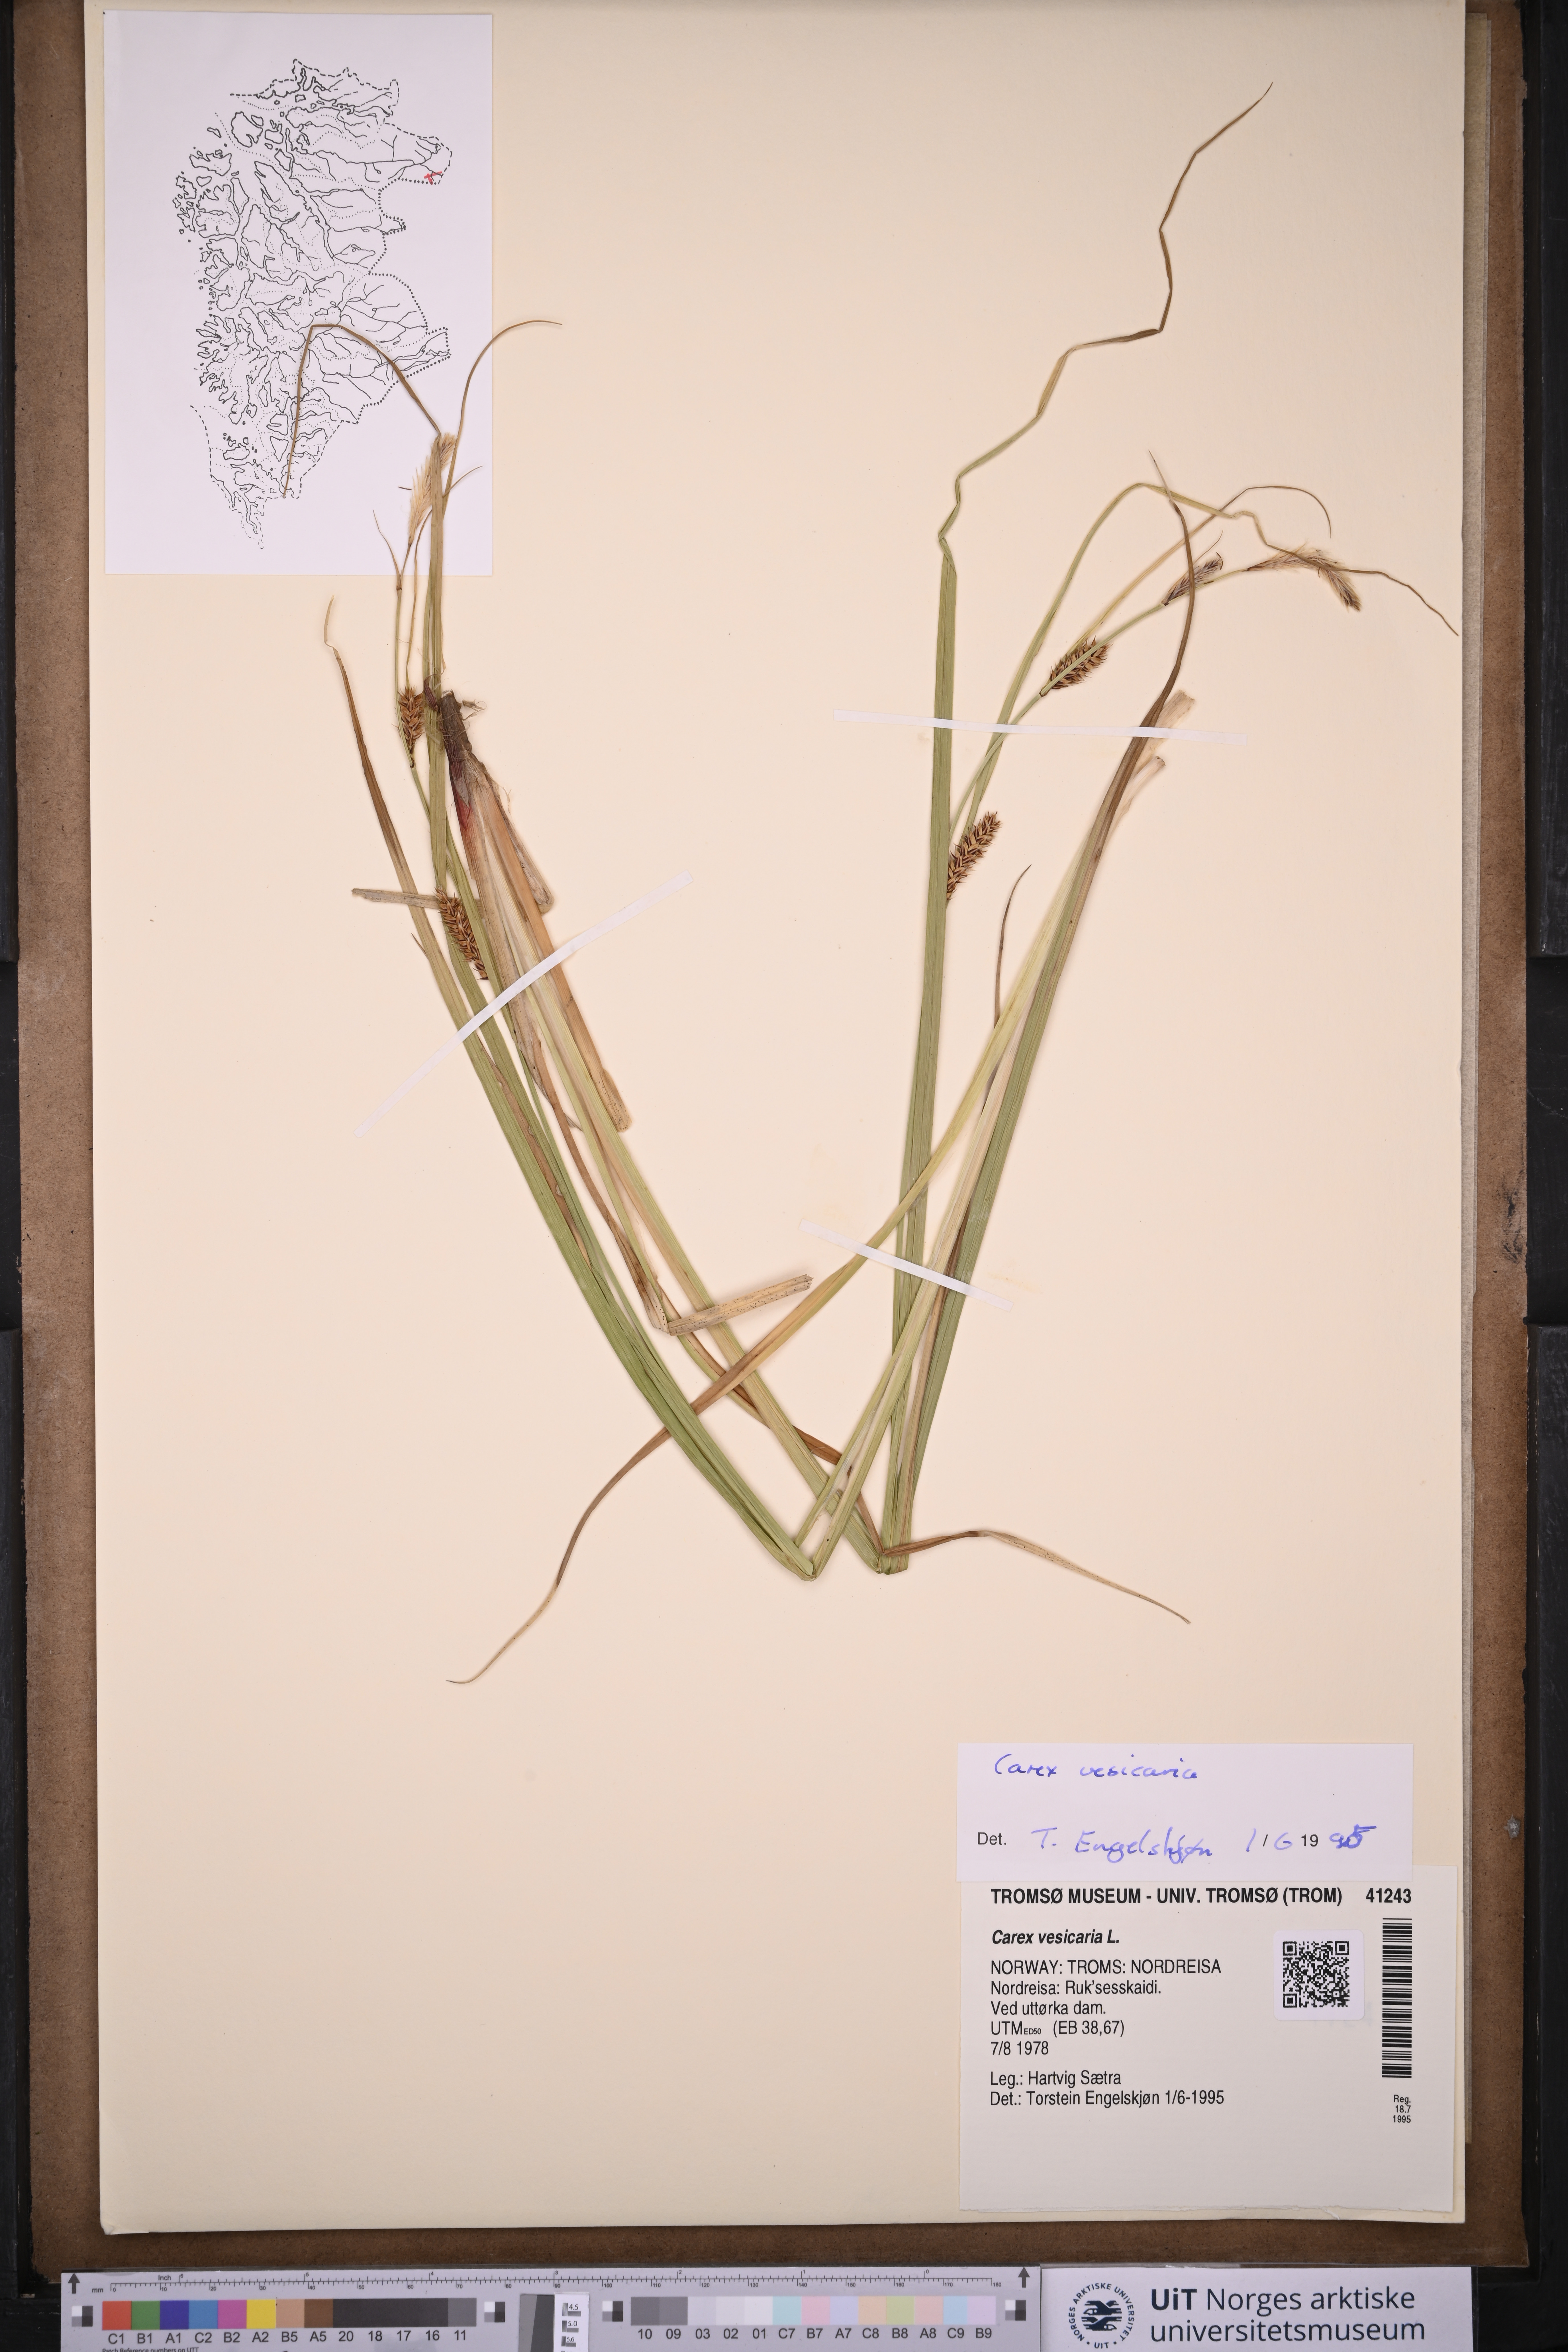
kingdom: Plantae
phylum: Tracheophyta
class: Liliopsida
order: Poales
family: Cyperaceae
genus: Carex
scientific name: Carex vesicaria
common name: Bladder-sedge
